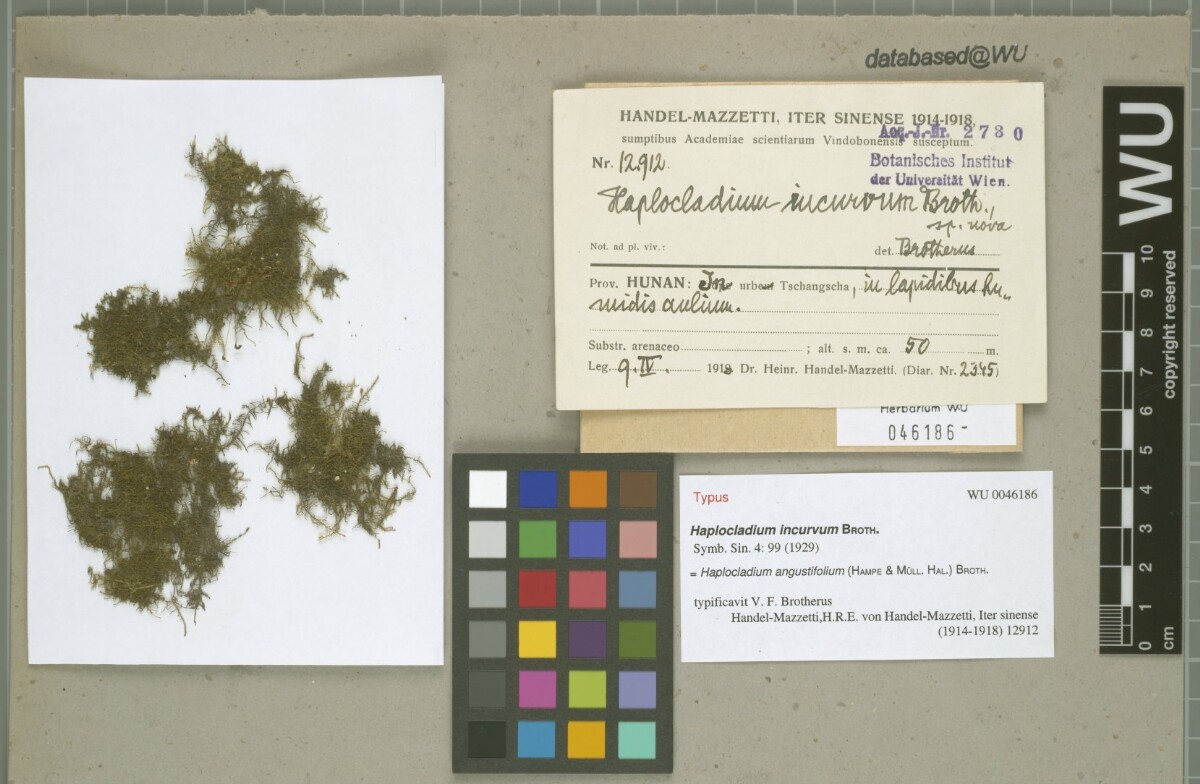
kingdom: Plantae
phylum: Bryophyta
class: Bryopsida
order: Hypnales
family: Leskeaceae
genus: Haplocladium
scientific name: Haplocladium angustifolium
